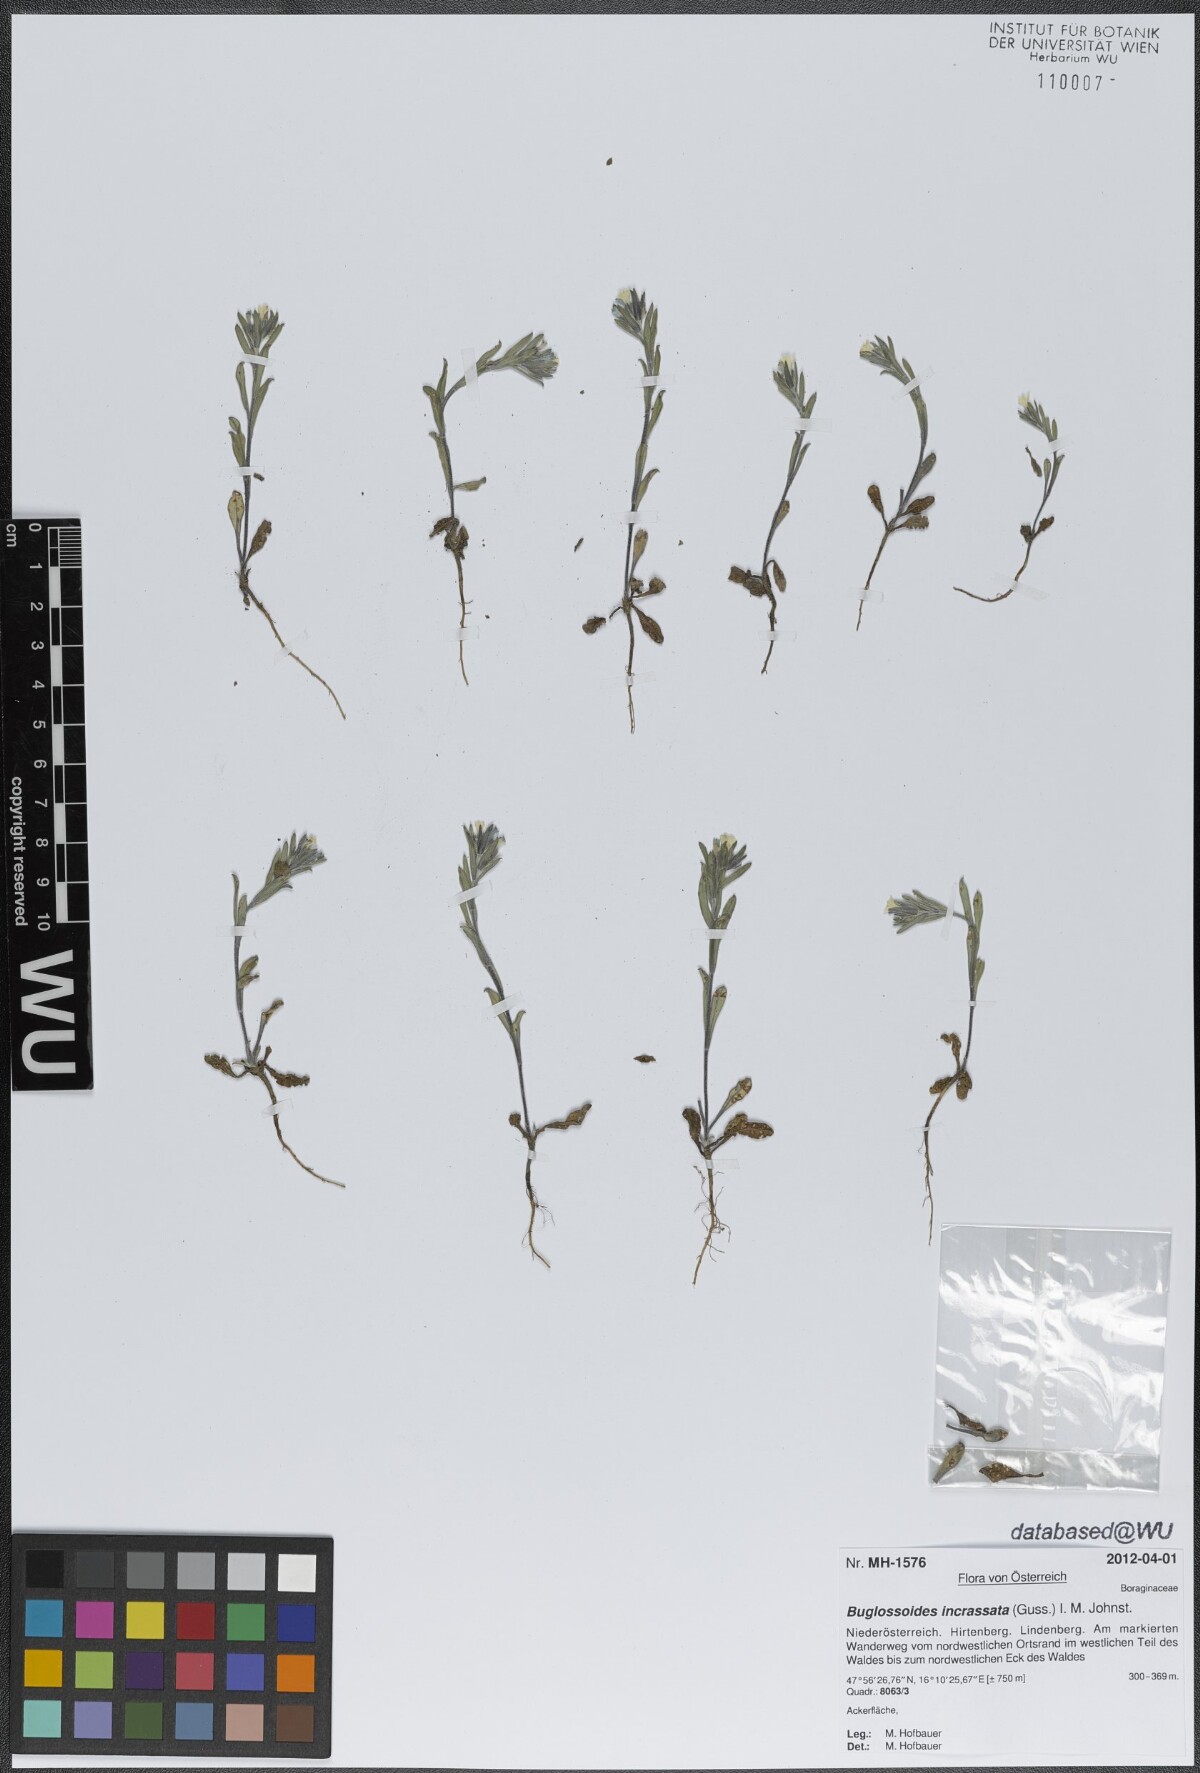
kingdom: Plantae
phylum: Tracheophyta
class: Magnoliopsida
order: Boraginales
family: Boraginaceae
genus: Buglossoides
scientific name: Buglossoides incrassata
